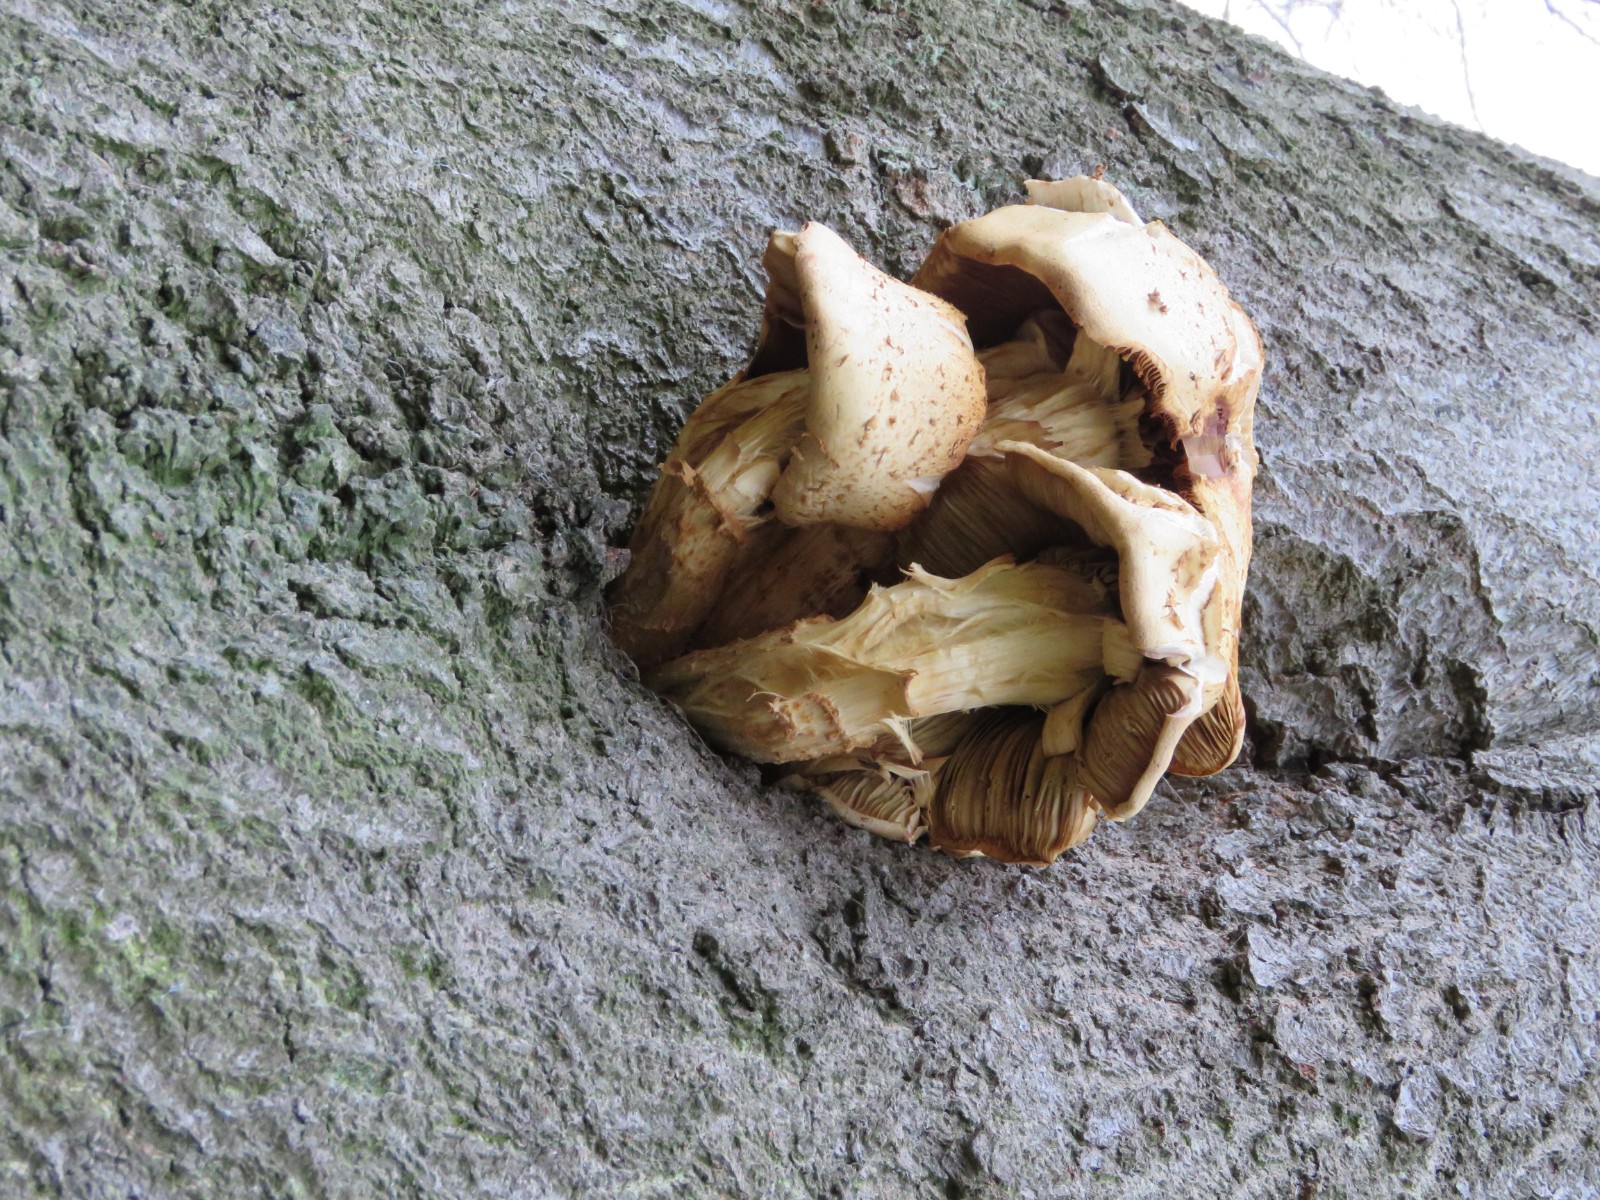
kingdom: Fungi
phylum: Basidiomycota
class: Agaricomycetes
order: Agaricales
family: Strophariaceae
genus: Pholiota
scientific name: Pholiota squarrosa
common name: krumskællet skælhat
